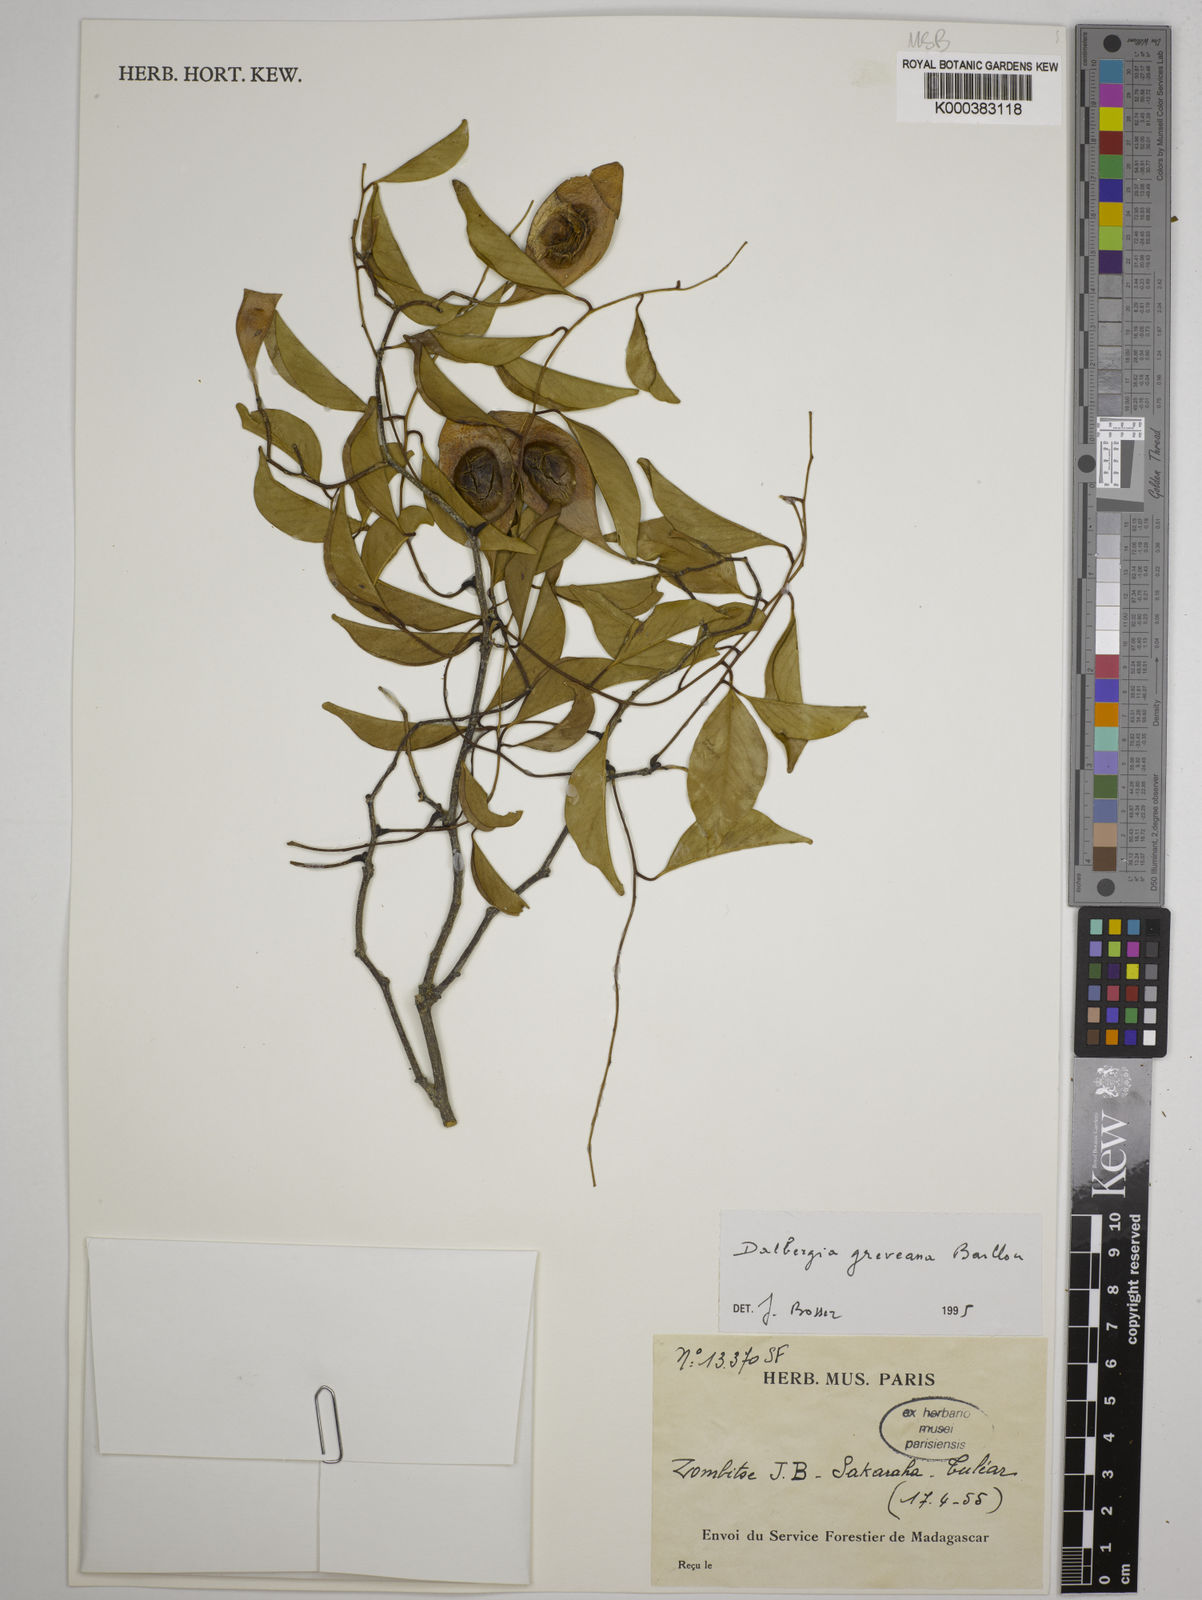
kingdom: Plantae
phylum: Tracheophyta
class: Magnoliopsida
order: Fabales
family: Fabaceae
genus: Dalbergia
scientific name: Dalbergia greveana
